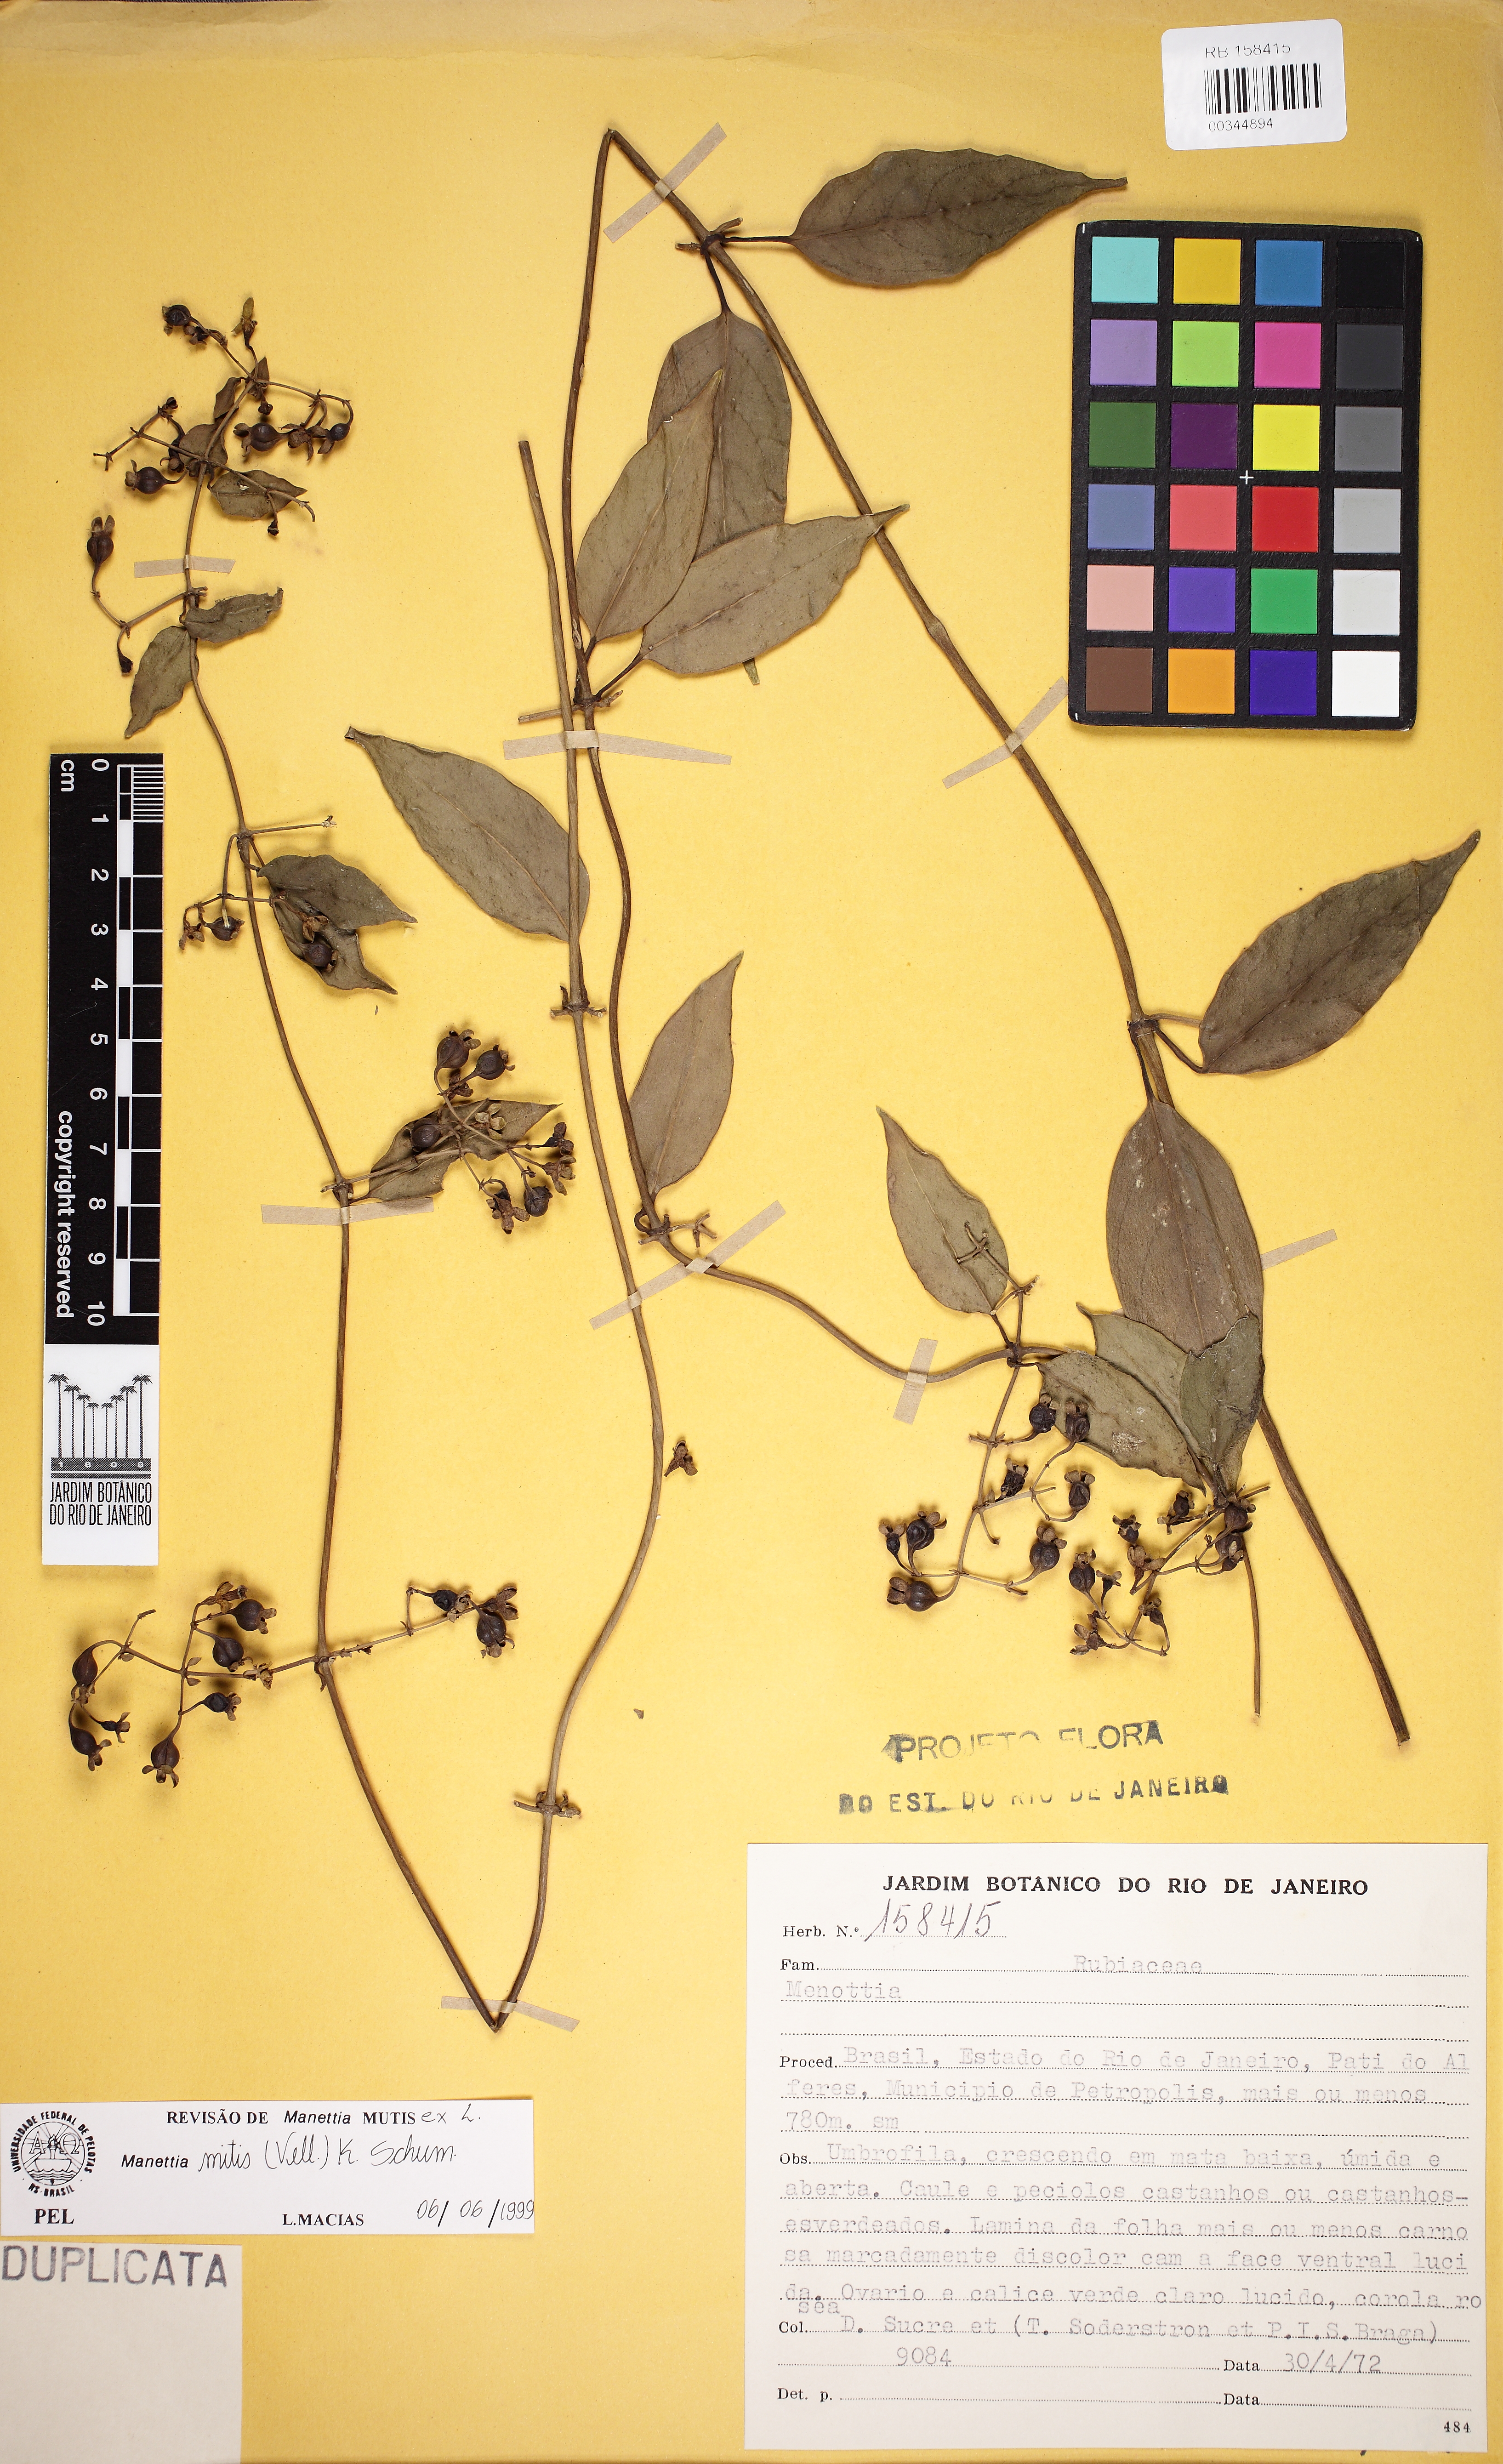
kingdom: Plantae
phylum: Tracheophyta
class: Magnoliopsida
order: Gentianales
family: Rubiaceae
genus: Manettia
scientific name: Manettia mitis
